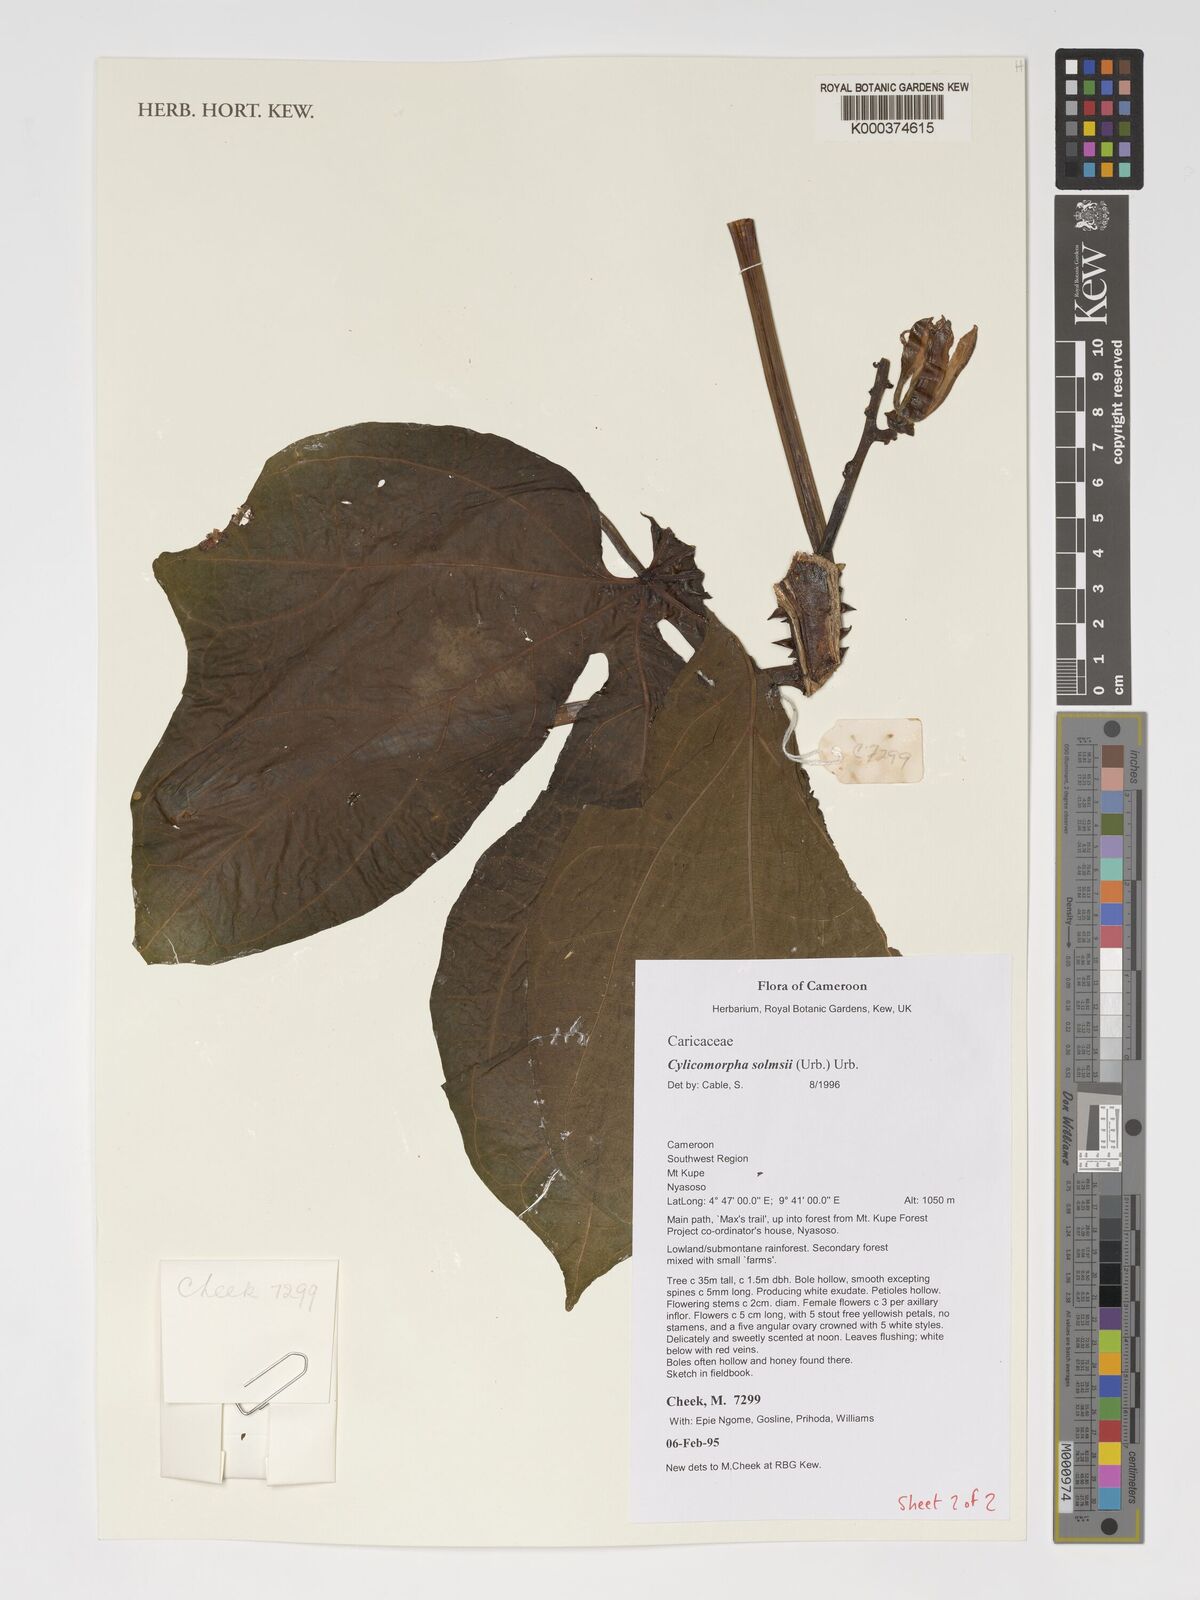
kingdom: Plantae
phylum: Tracheophyta
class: Magnoliopsida
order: Brassicales
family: Caricaceae
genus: Cylicomorpha
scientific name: Cylicomorpha solmsii
